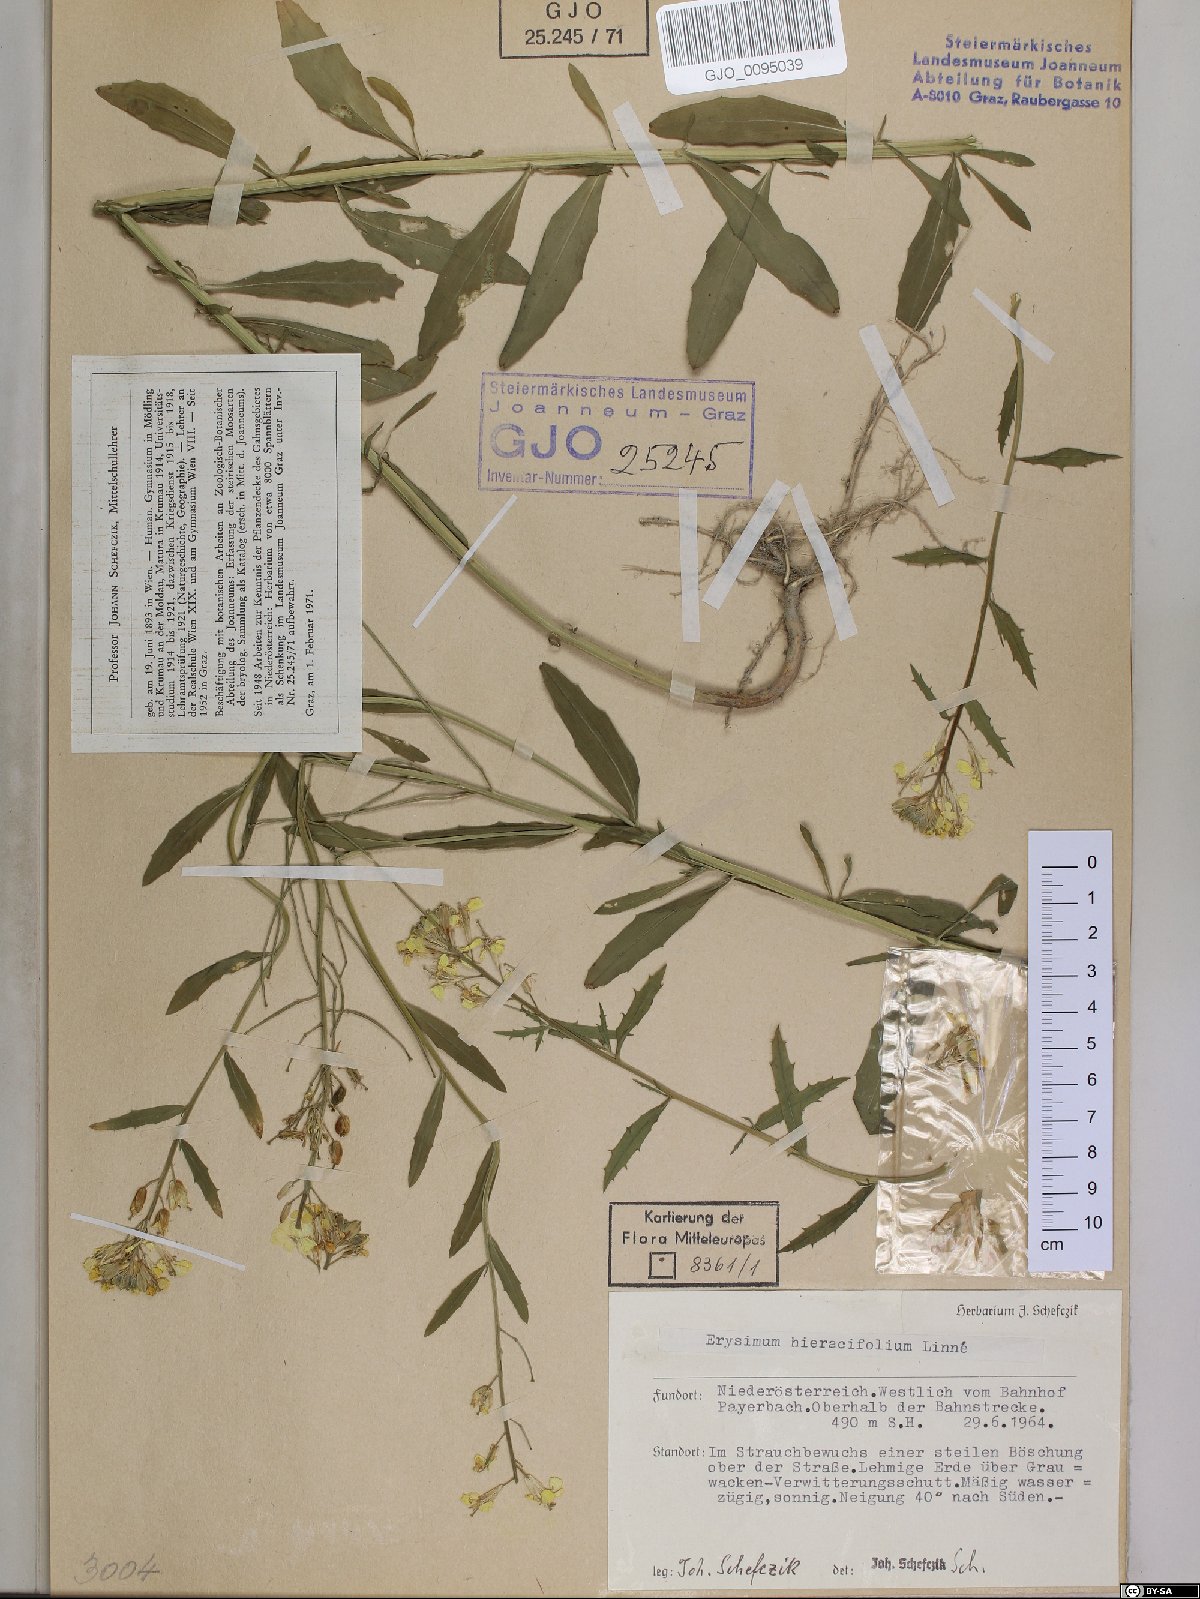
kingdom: Plantae
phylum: Tracheophyta
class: Magnoliopsida
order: Brassicales
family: Brassicaceae
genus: Erysimum
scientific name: Erysimum hieraciifolium
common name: European wallflower
